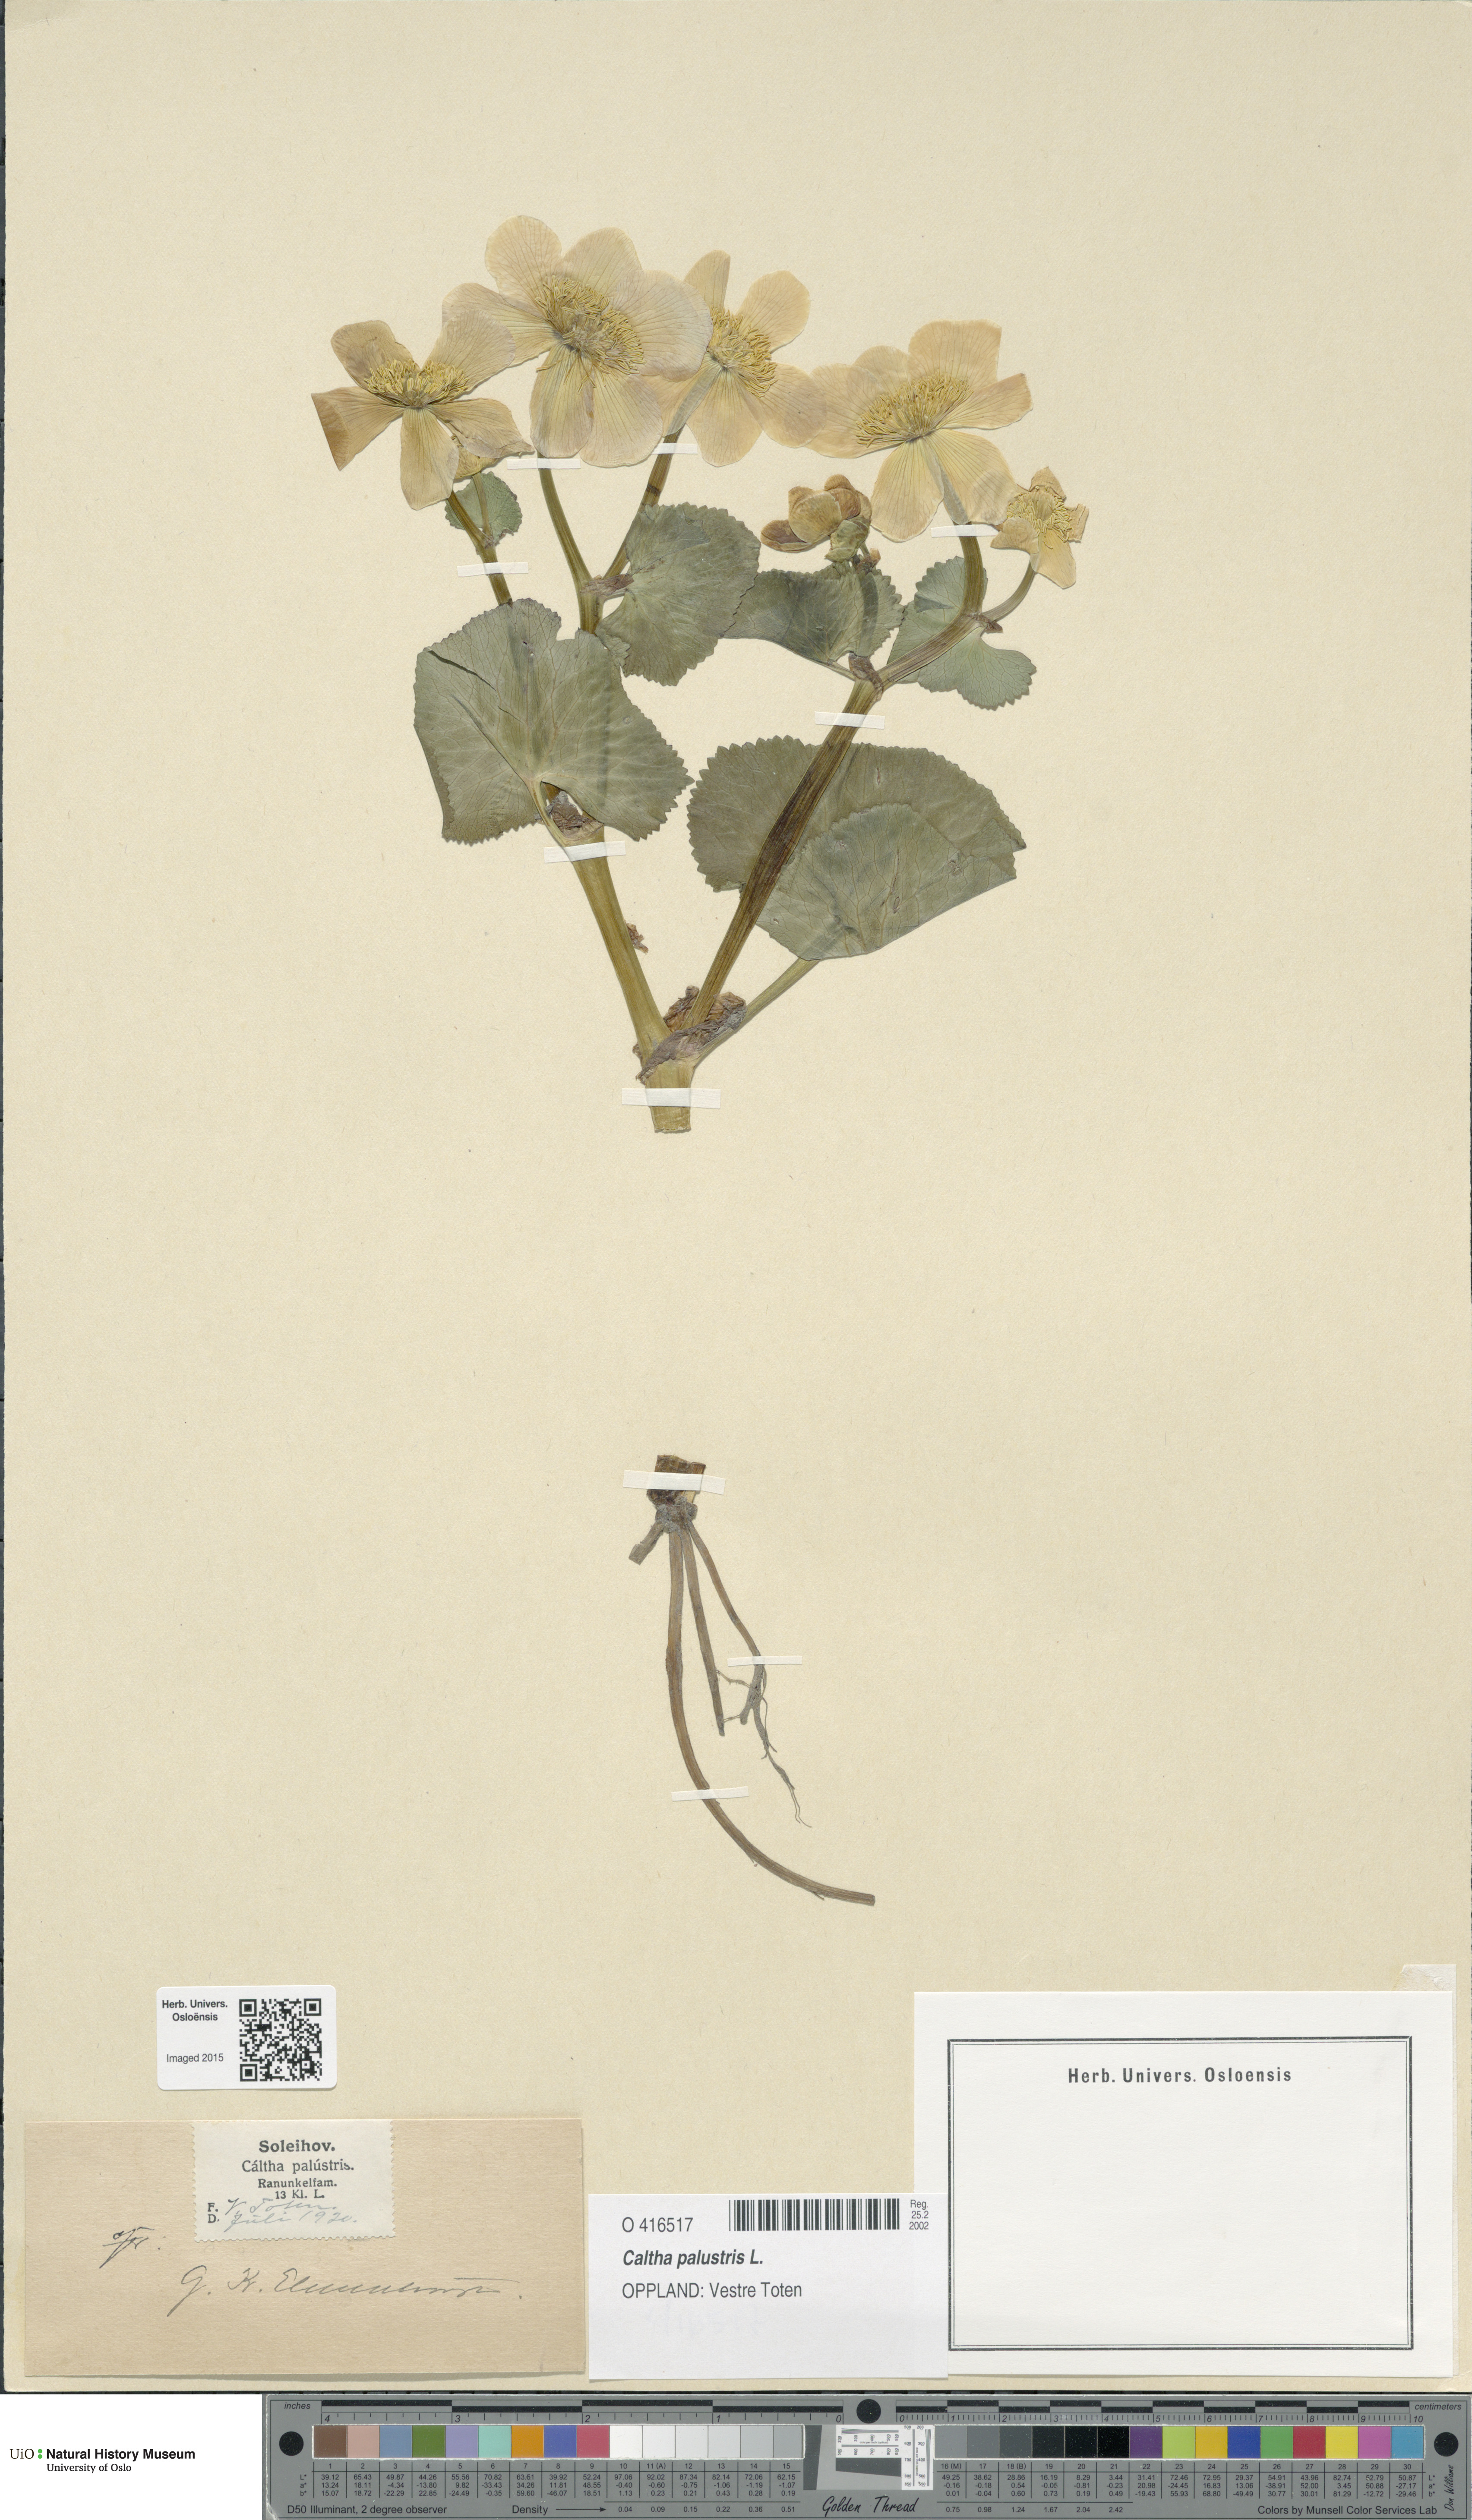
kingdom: Plantae
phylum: Tracheophyta
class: Magnoliopsida
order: Ranunculales
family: Ranunculaceae
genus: Caltha
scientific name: Caltha palustris
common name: Marsh marigold
